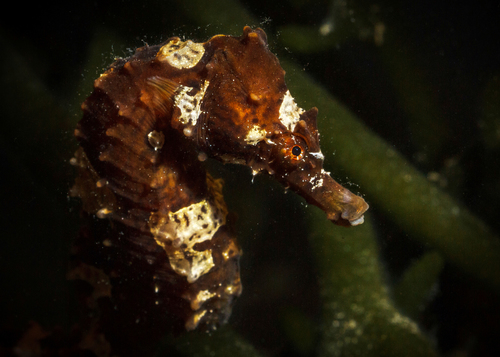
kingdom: Animalia
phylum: Chordata
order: Syngnathiformes
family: Syngnathidae
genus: Hippocampus
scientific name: Hippocampus hippocampus
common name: Short-snouted seahorse
